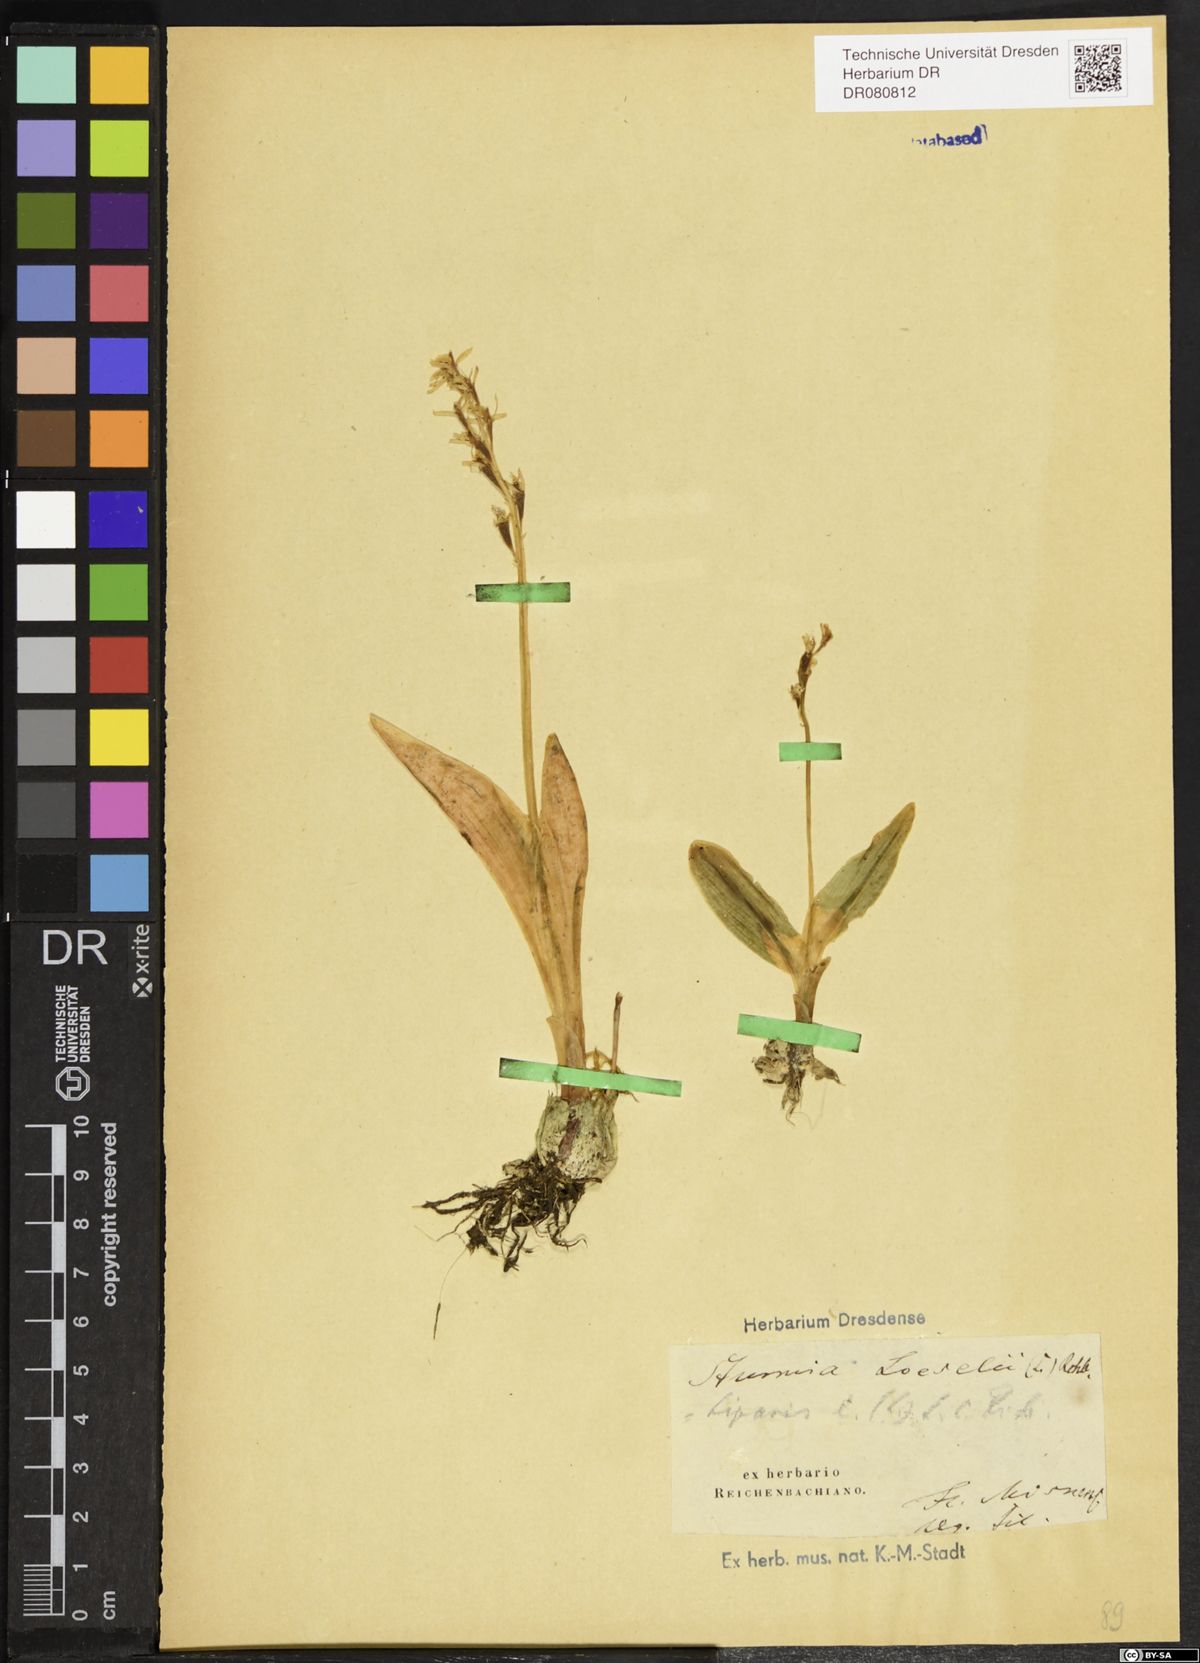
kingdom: Animalia
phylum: Arthropoda
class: Insecta
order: Coleoptera
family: Curculionidae
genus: Liparis
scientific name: Liparis loeselii
